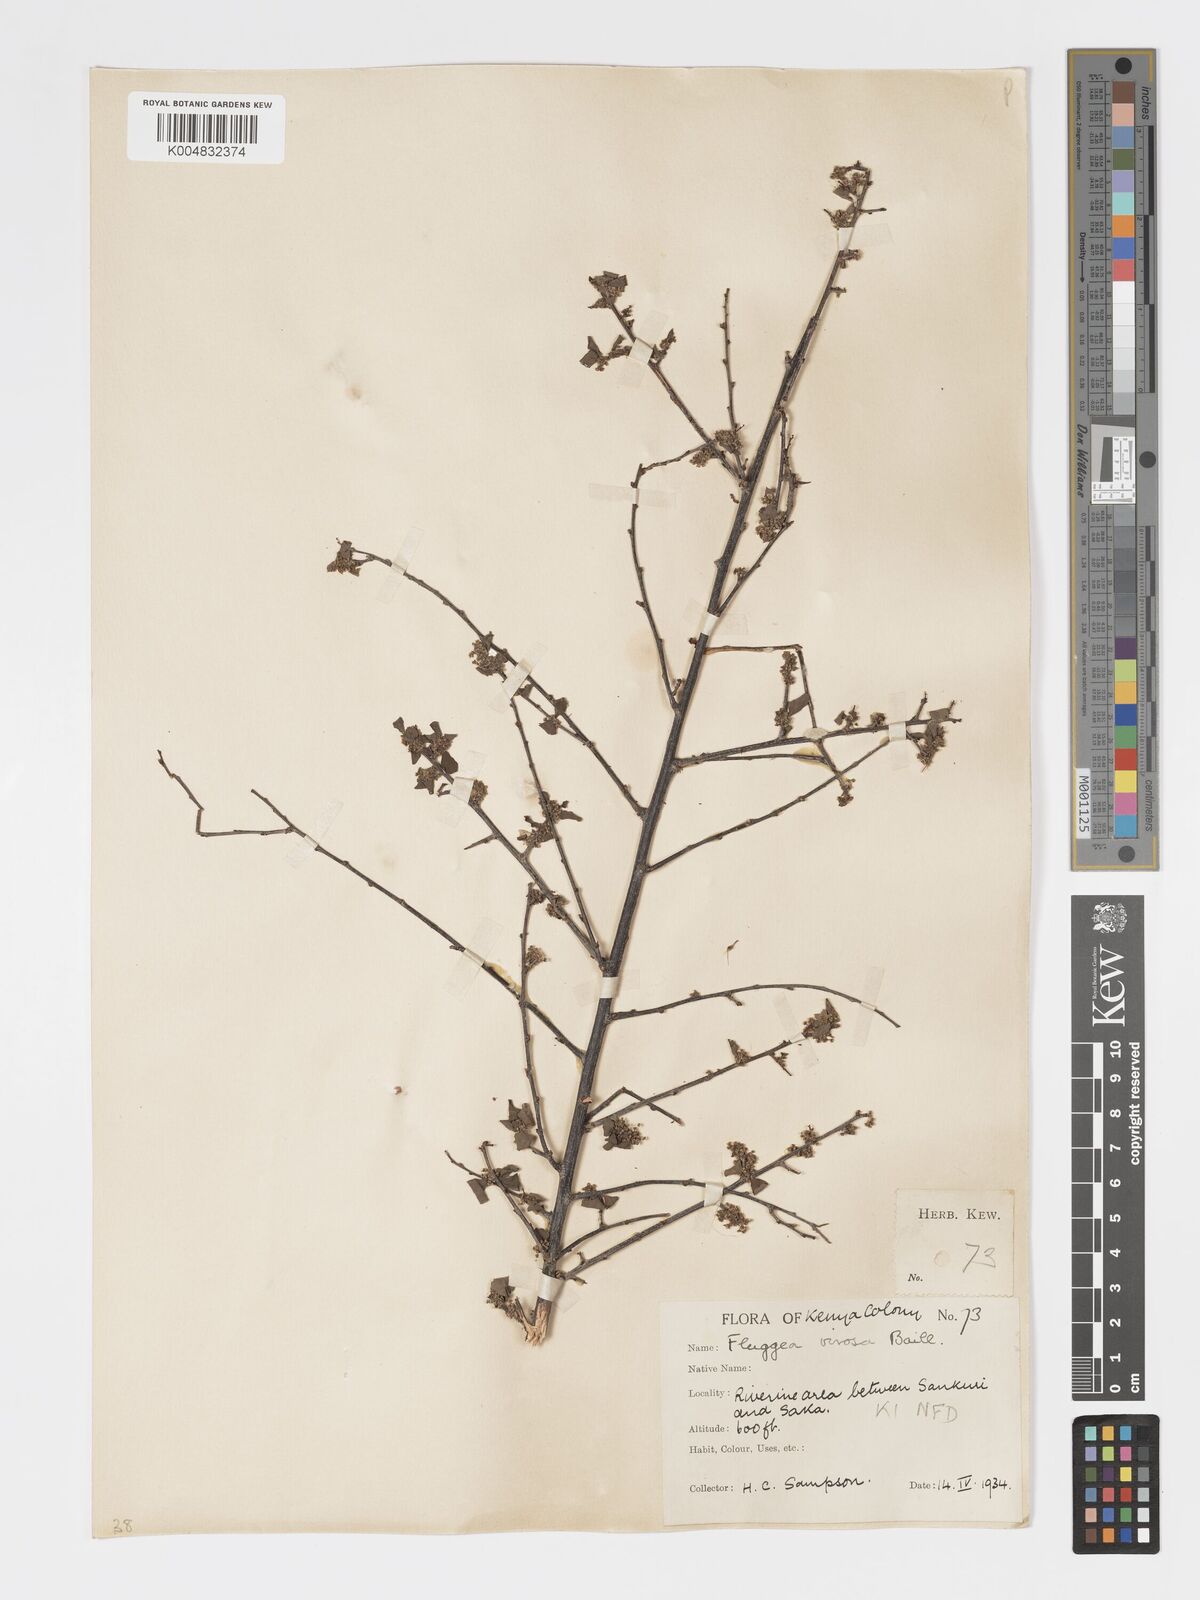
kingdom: Plantae
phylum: Tracheophyta
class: Magnoliopsida
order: Malpighiales
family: Phyllanthaceae
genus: Flueggea
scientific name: Flueggea virosa
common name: Common bushweed
